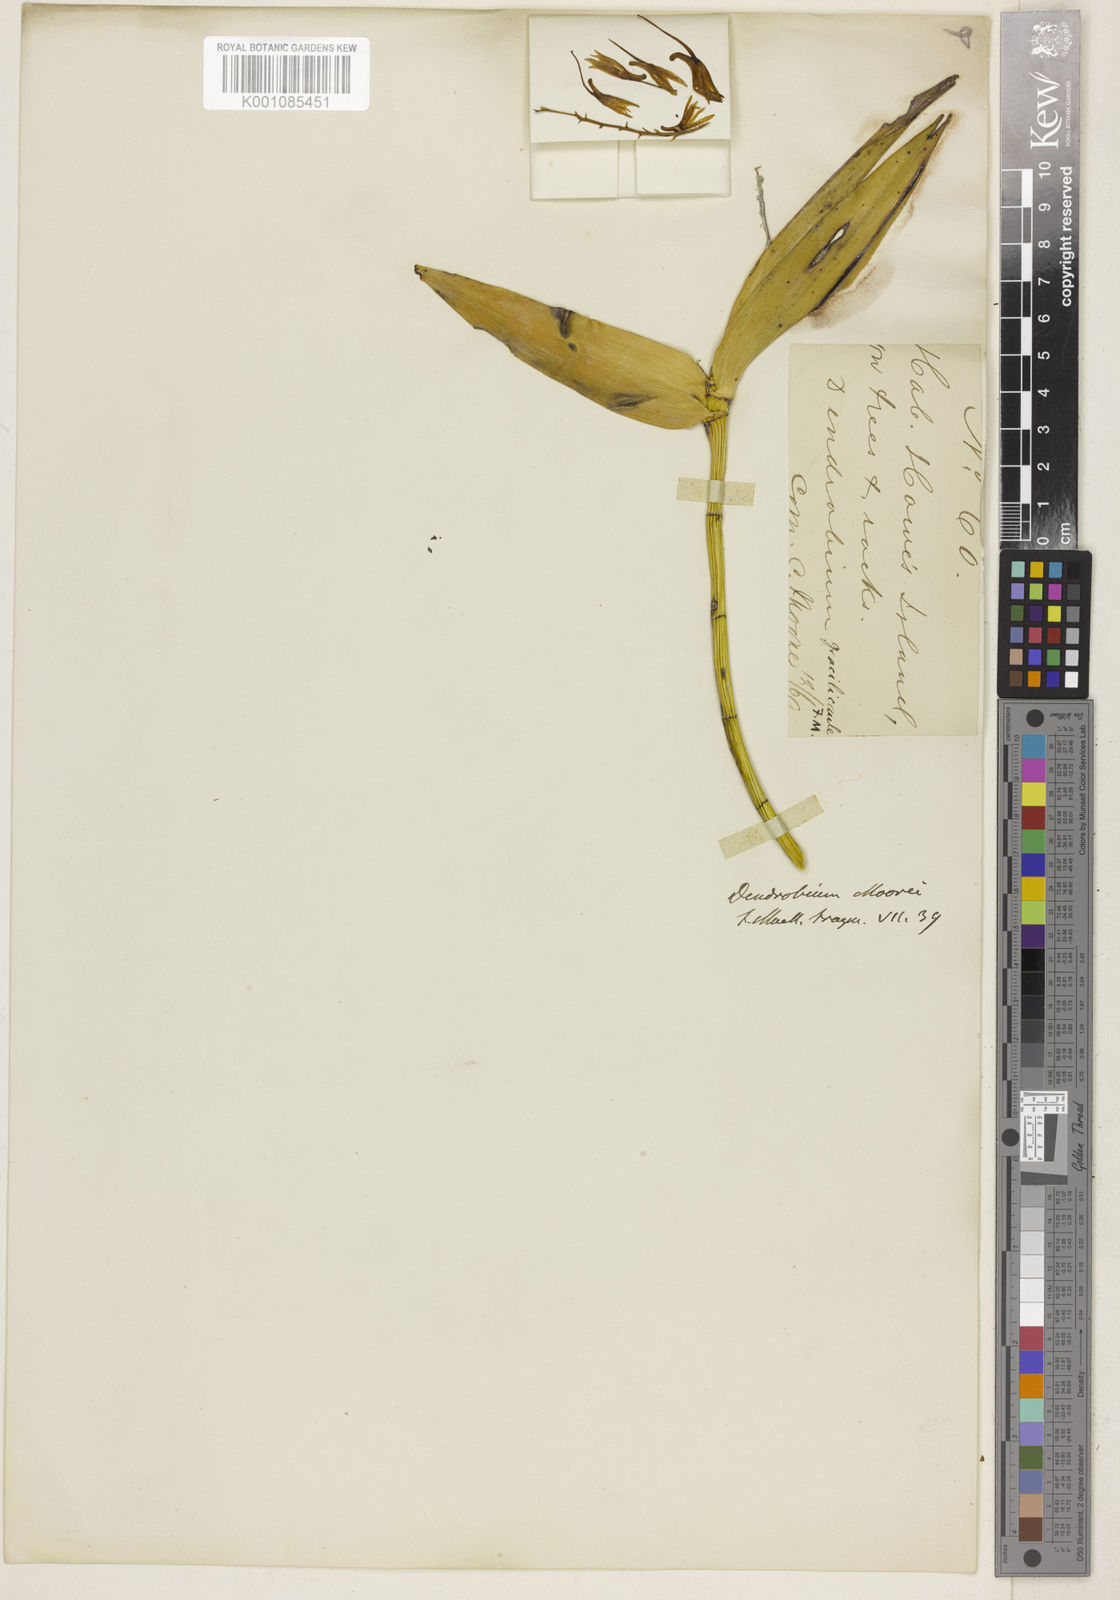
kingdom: Plantae
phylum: Tracheophyta
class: Liliopsida
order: Asparagales
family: Orchidaceae
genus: Dendrobium
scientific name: Dendrobium moorei
